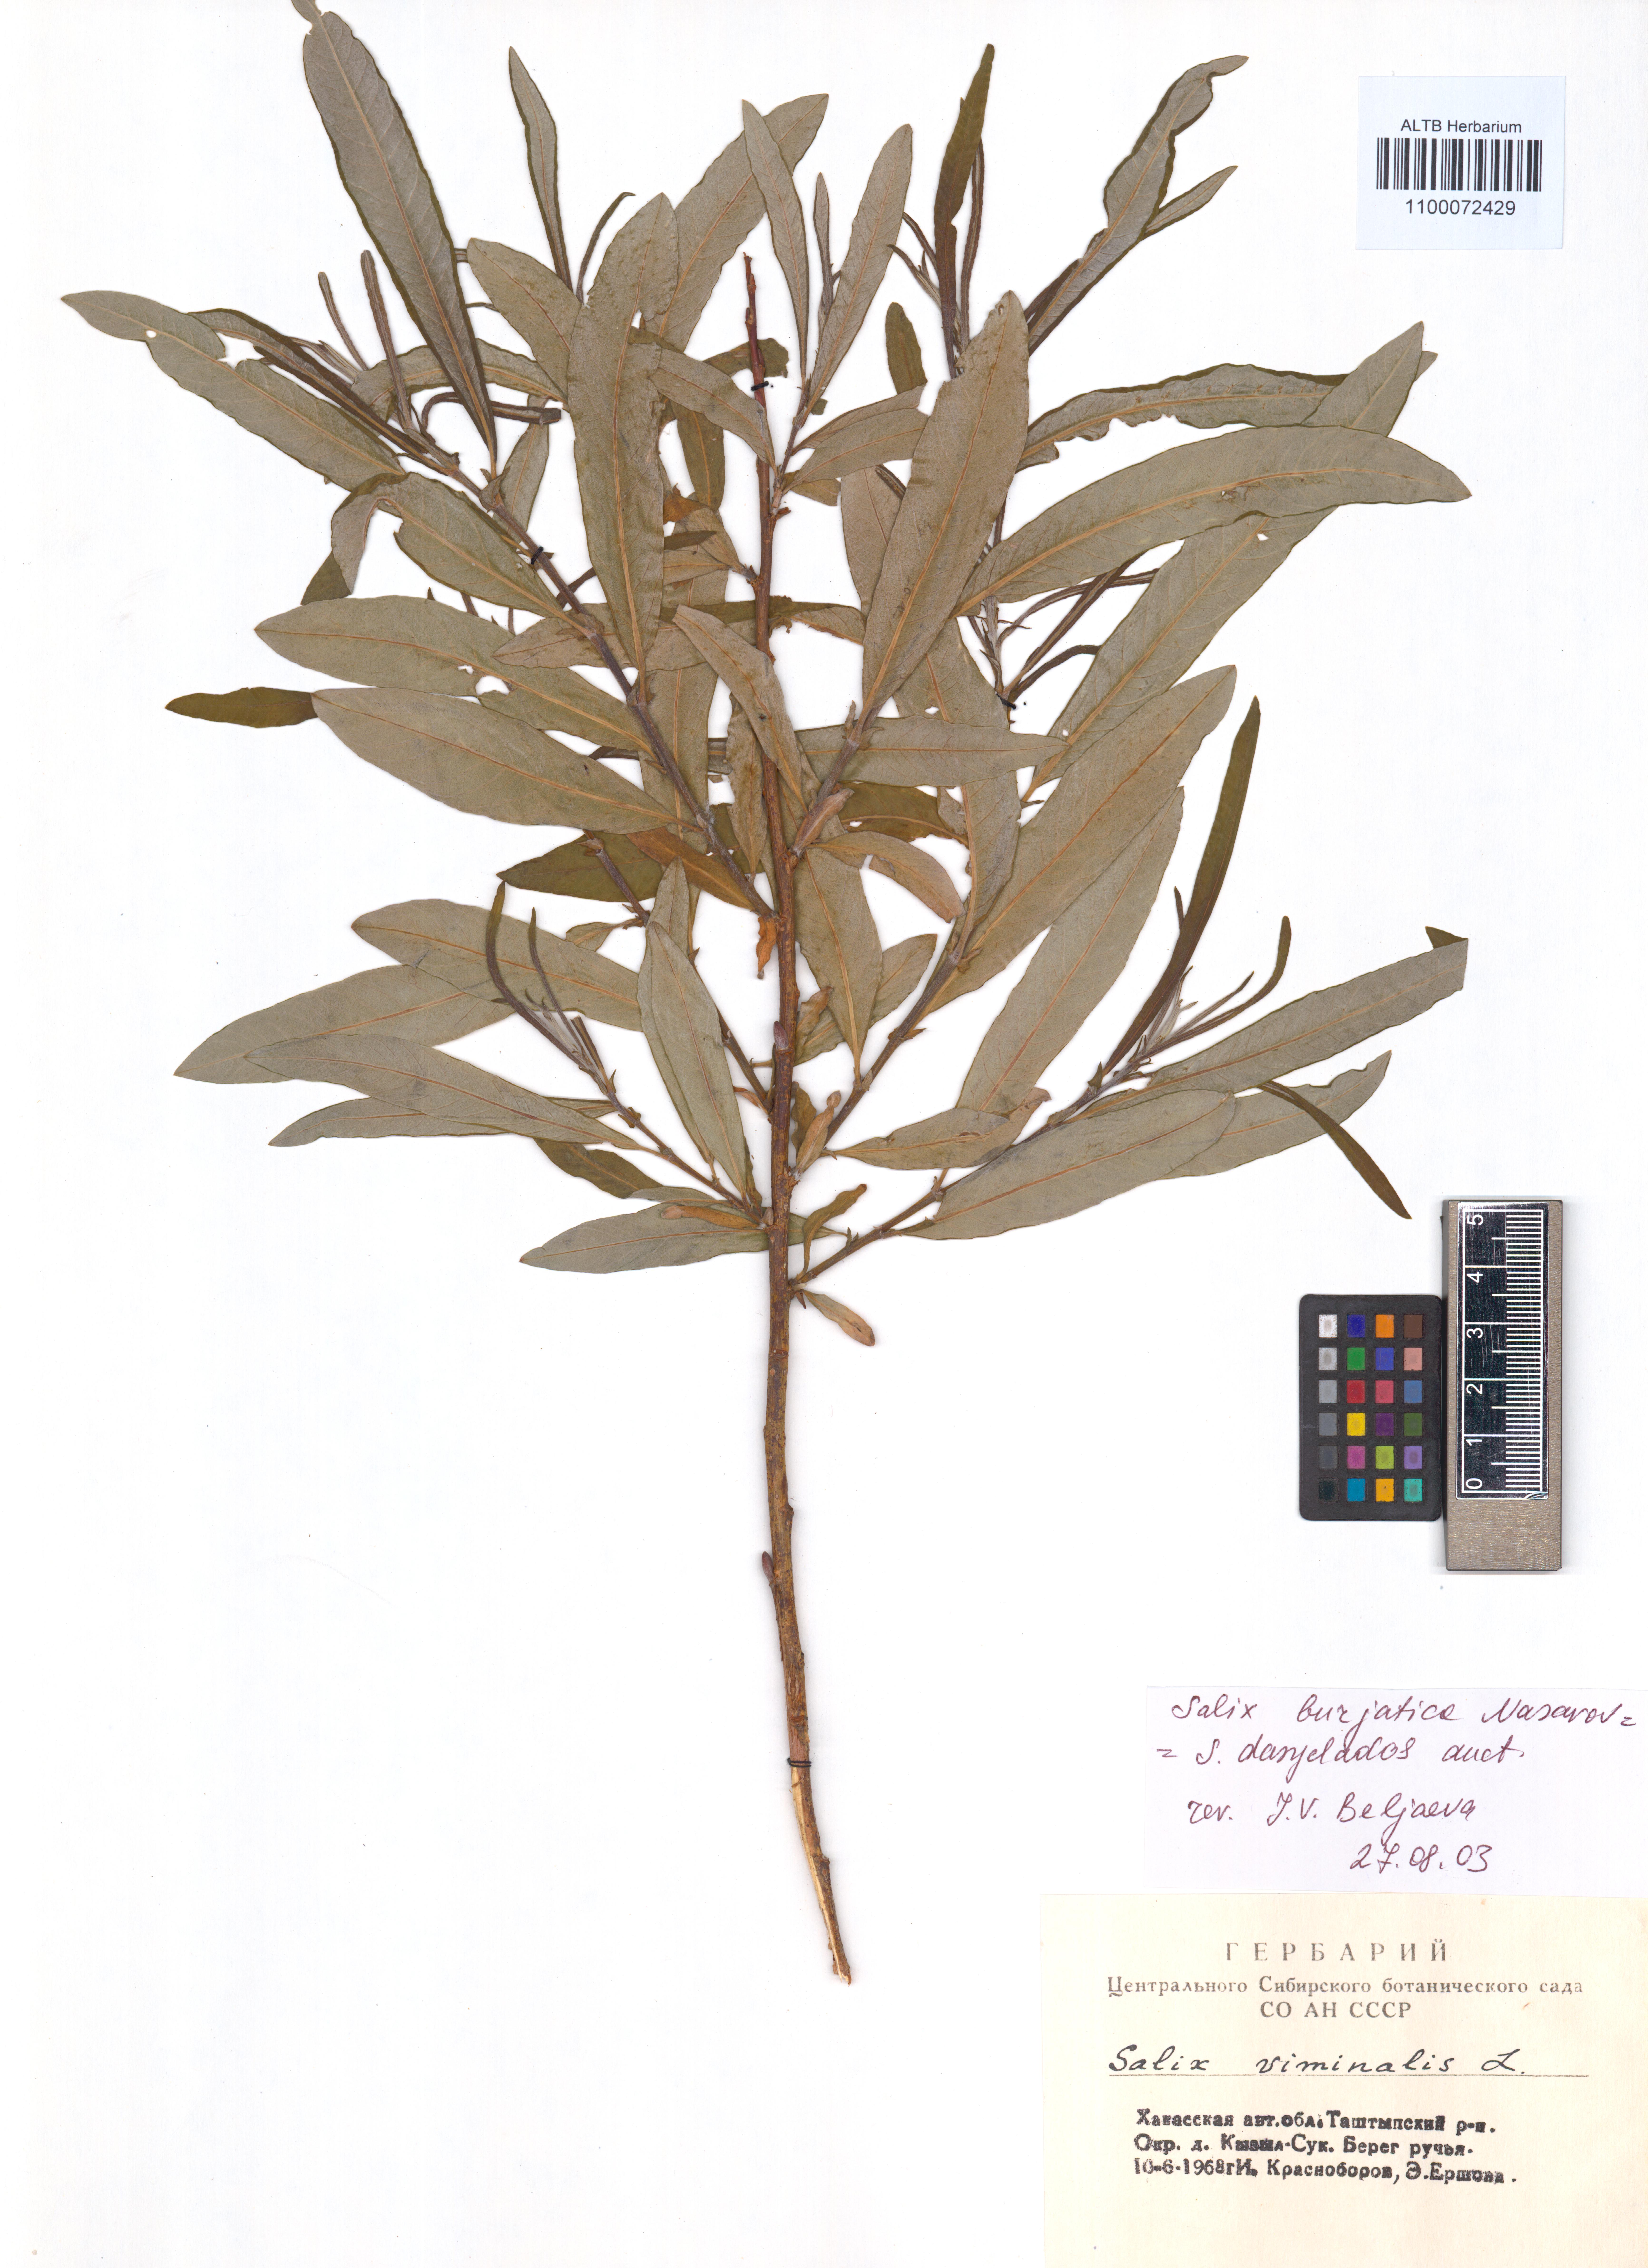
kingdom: Plantae
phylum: Tracheophyta
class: Magnoliopsida
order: Malpighiales
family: Salicaceae
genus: Salix
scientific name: Salix gmelinii
